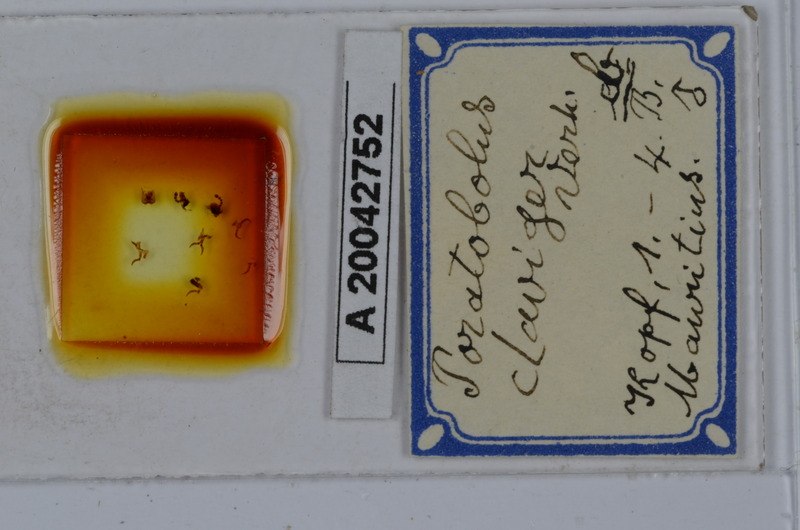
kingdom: Animalia
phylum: Arthropoda
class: Diplopoda
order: Spirobolida
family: Spirobolellidae
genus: Spirobolellus
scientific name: Spirobolellus claviger
